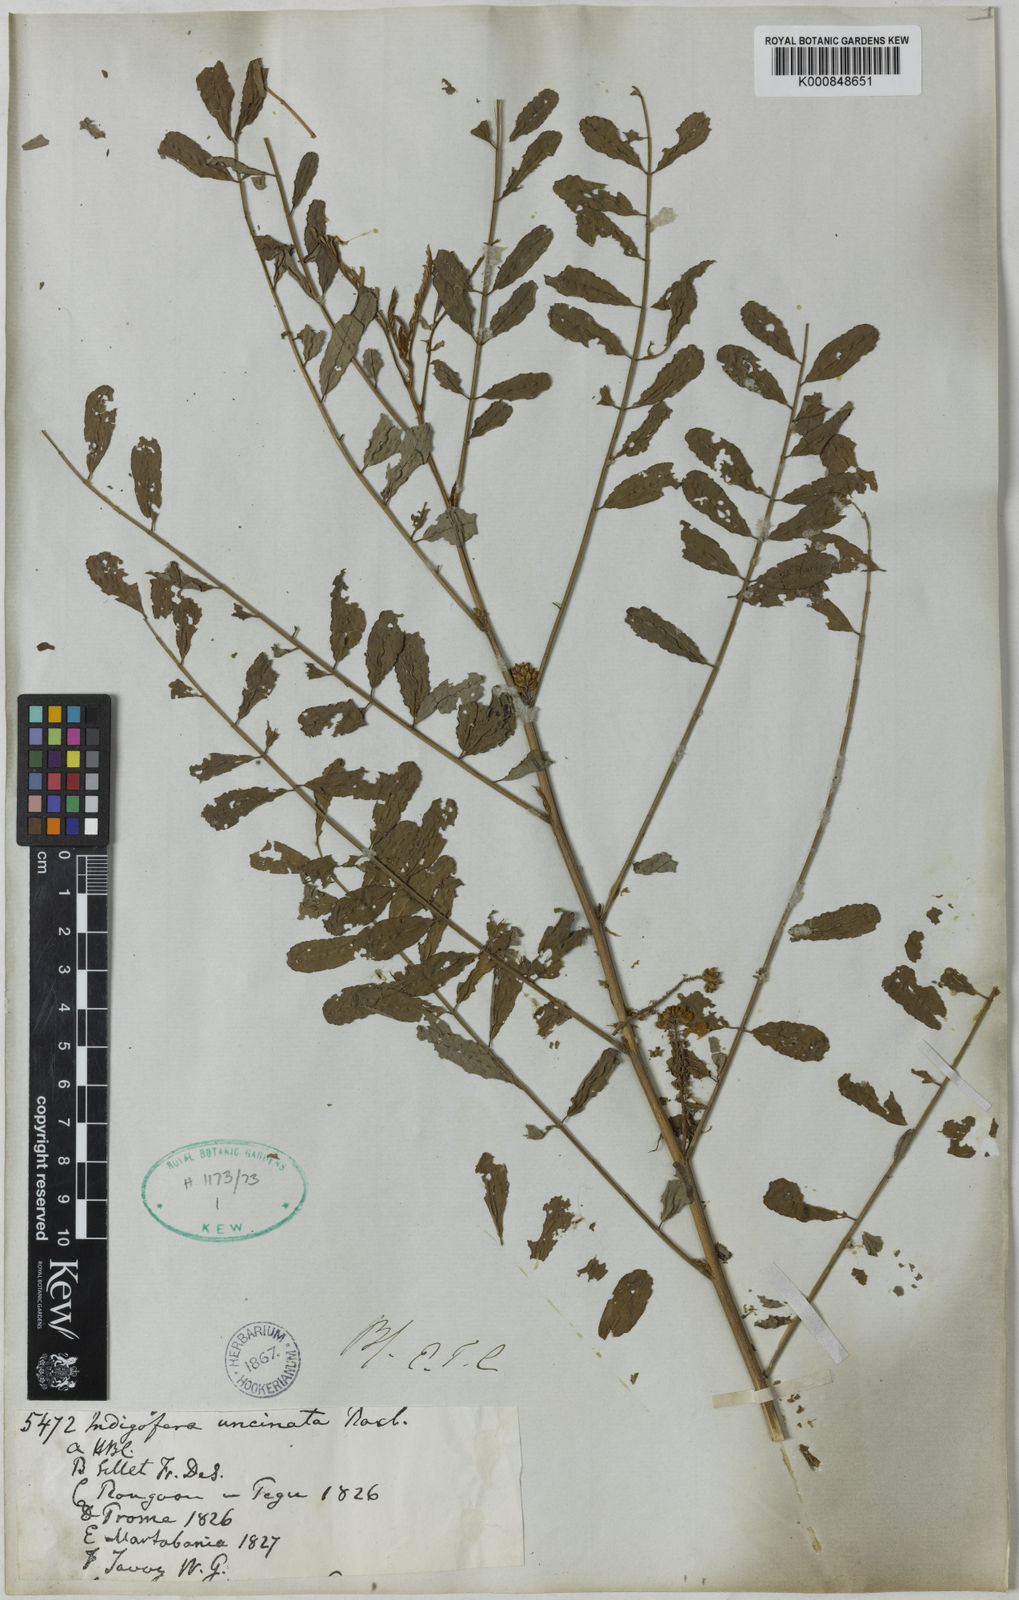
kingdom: Plantae
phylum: Tracheophyta
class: Magnoliopsida
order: Fabales
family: Fabaceae
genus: Indigofera
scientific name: Indigofera galegoides
